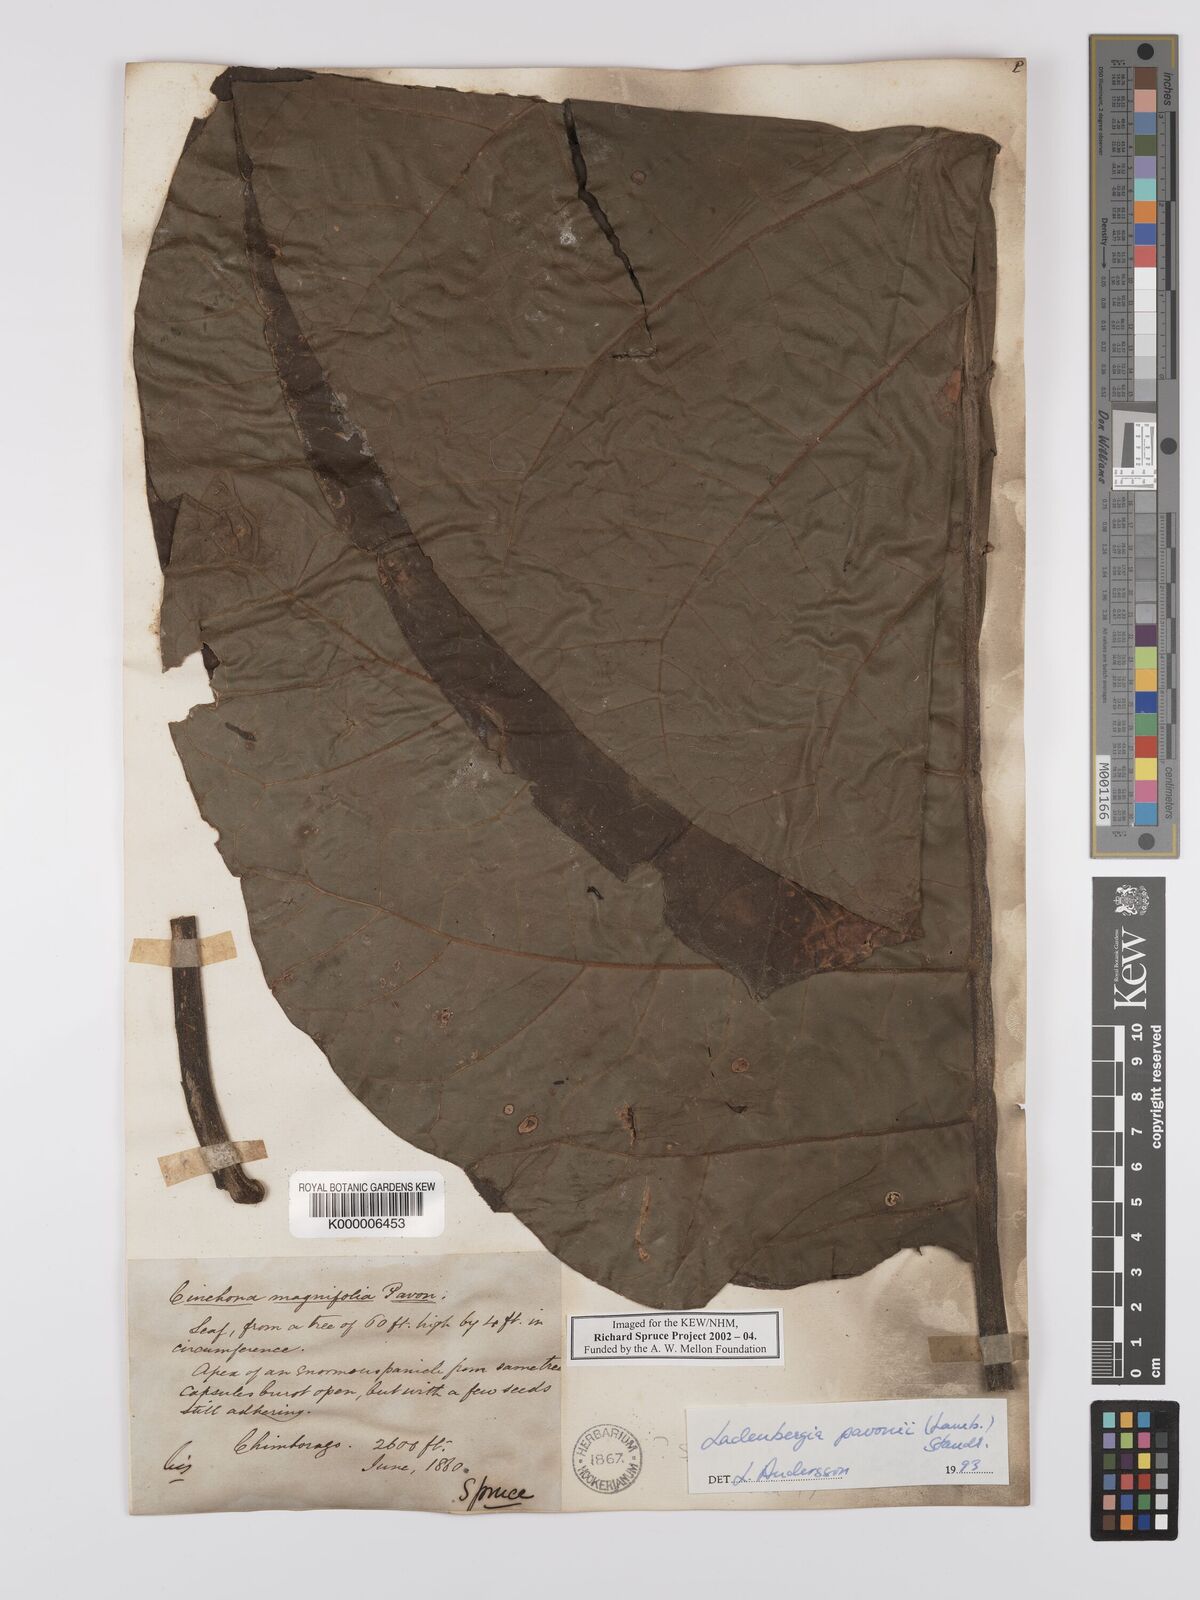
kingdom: Plantae
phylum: Tracheophyta
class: Magnoliopsida
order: Gentianales
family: Rubiaceae
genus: Ladenbergia
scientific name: Ladenbergia pavonii
